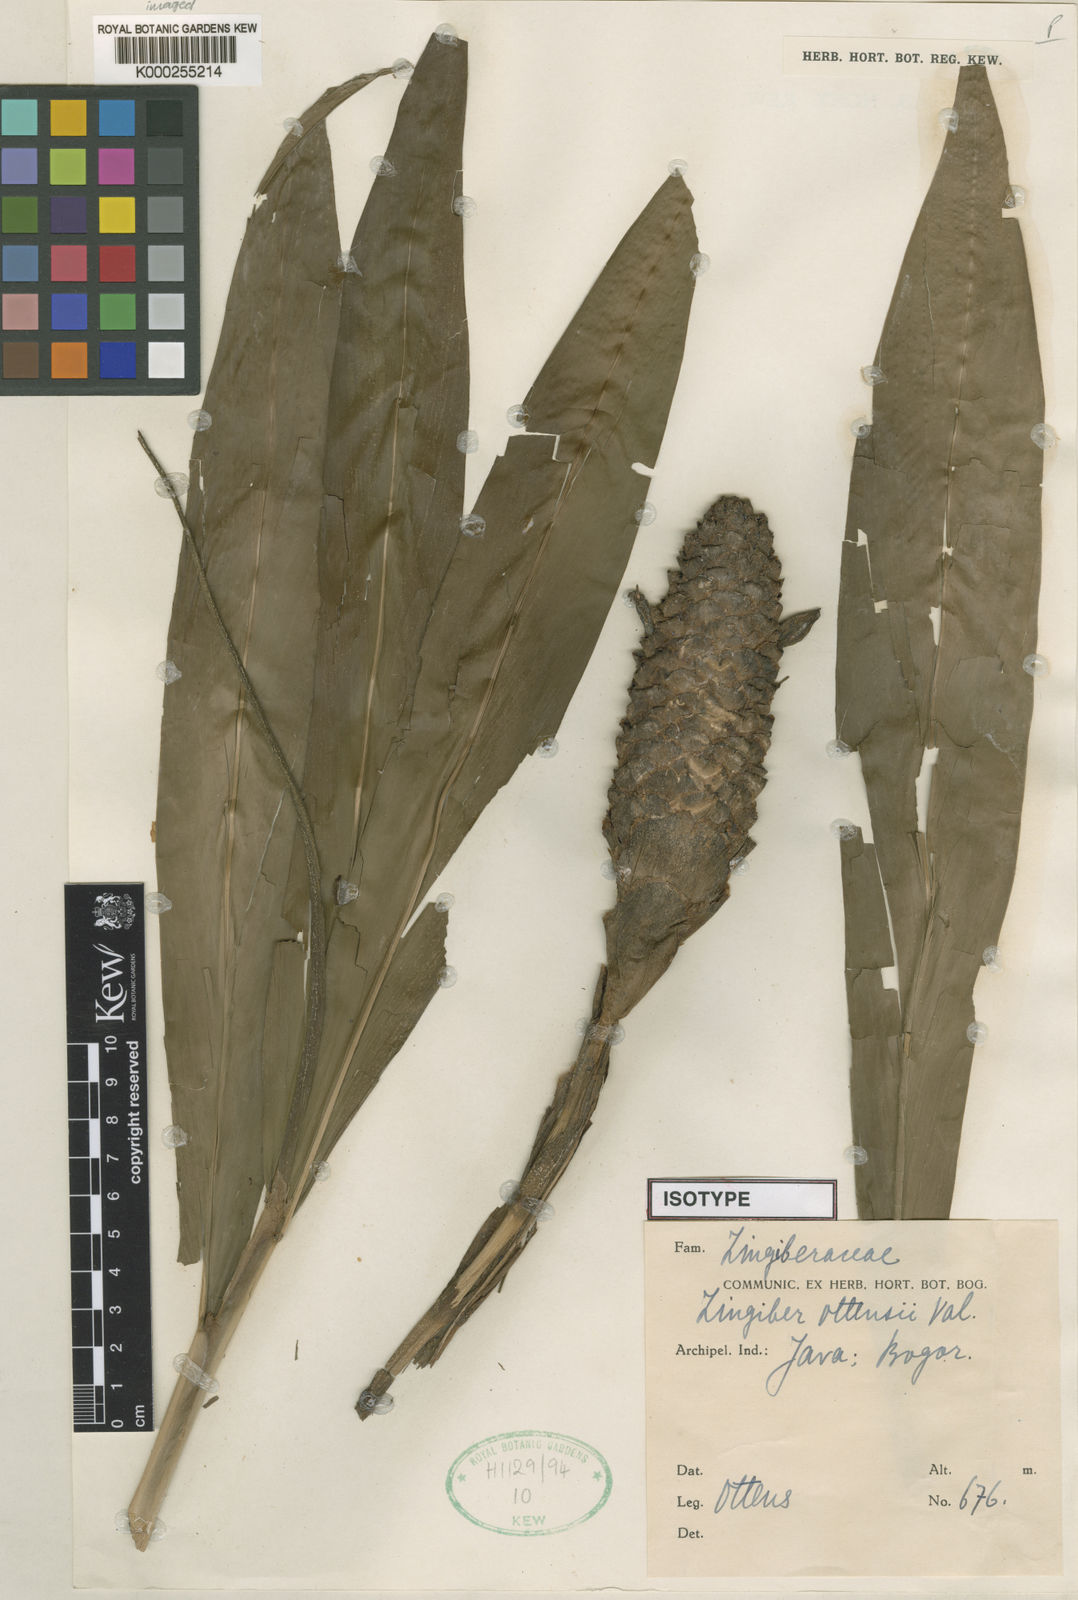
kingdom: Plantae
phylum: Tracheophyta
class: Liliopsida
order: Zingiberales
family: Zingiberaceae
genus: Zingiber
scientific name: Zingiber ottensii
